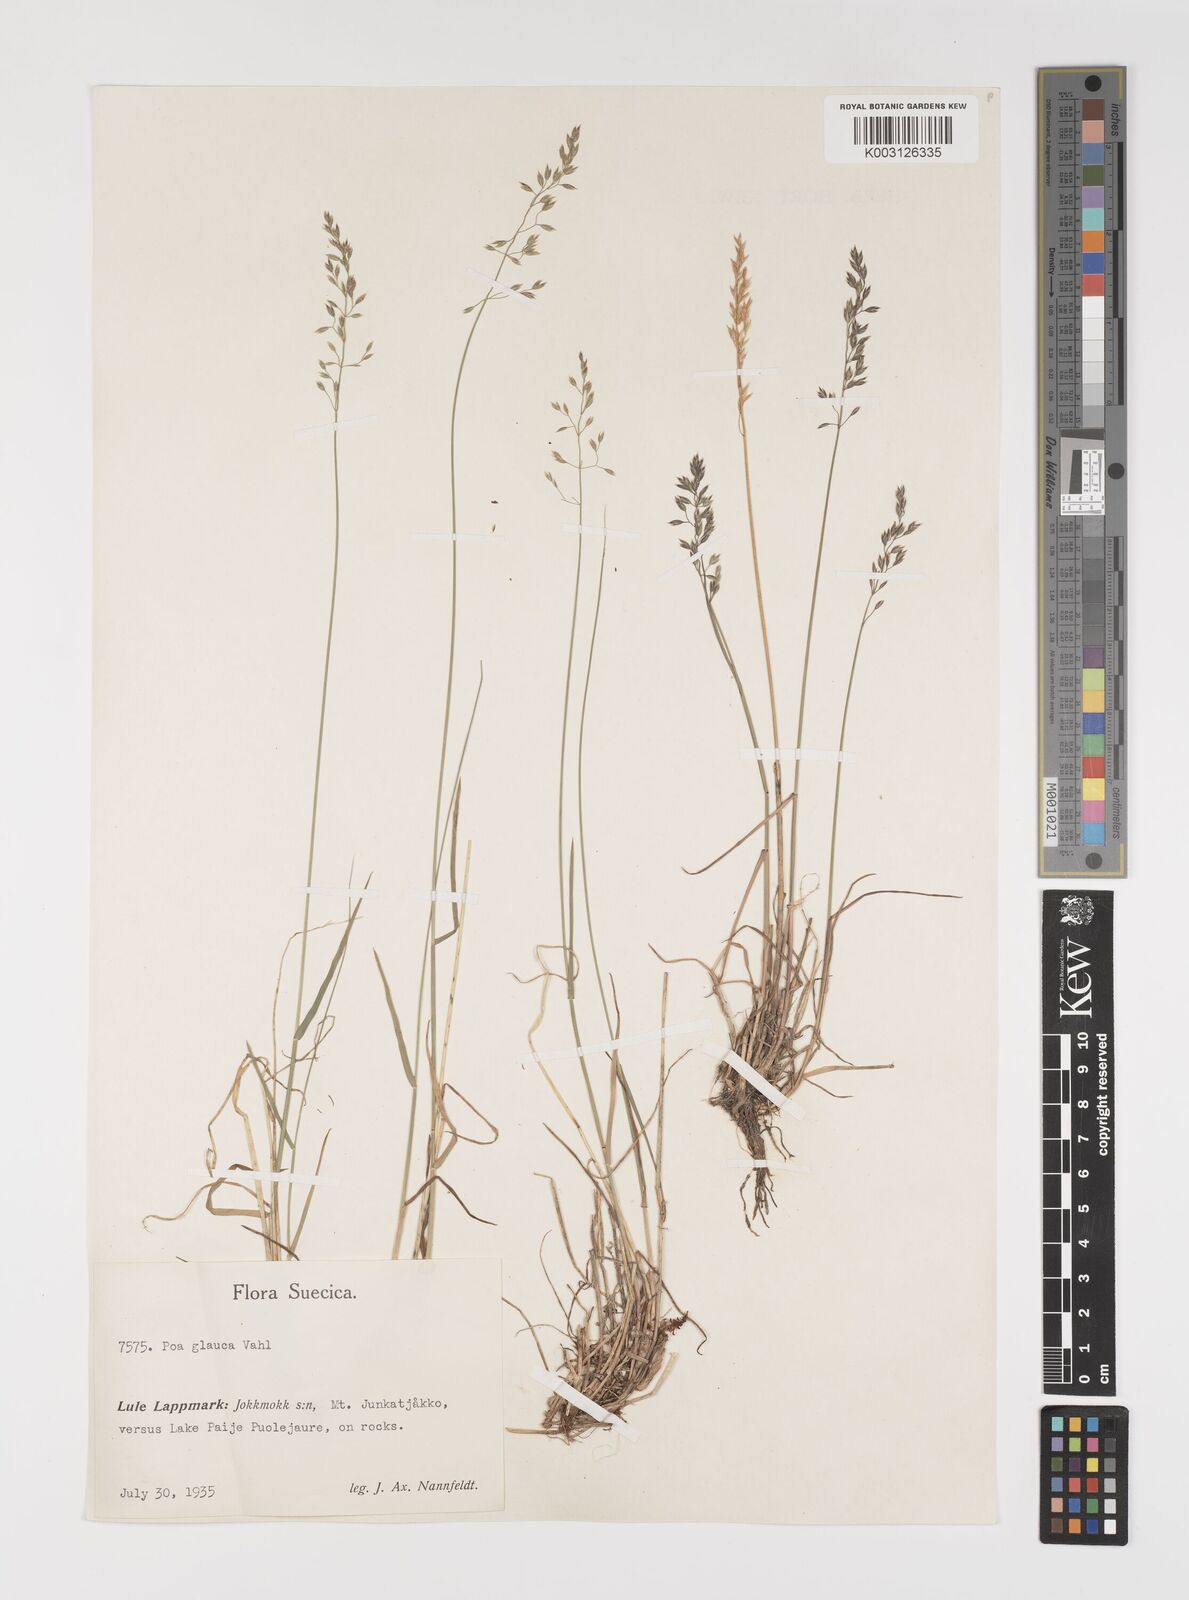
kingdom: Plantae
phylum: Tracheophyta
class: Liliopsida
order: Poales
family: Poaceae
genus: Poa
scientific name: Poa glauca
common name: Glaucous bluegrass
